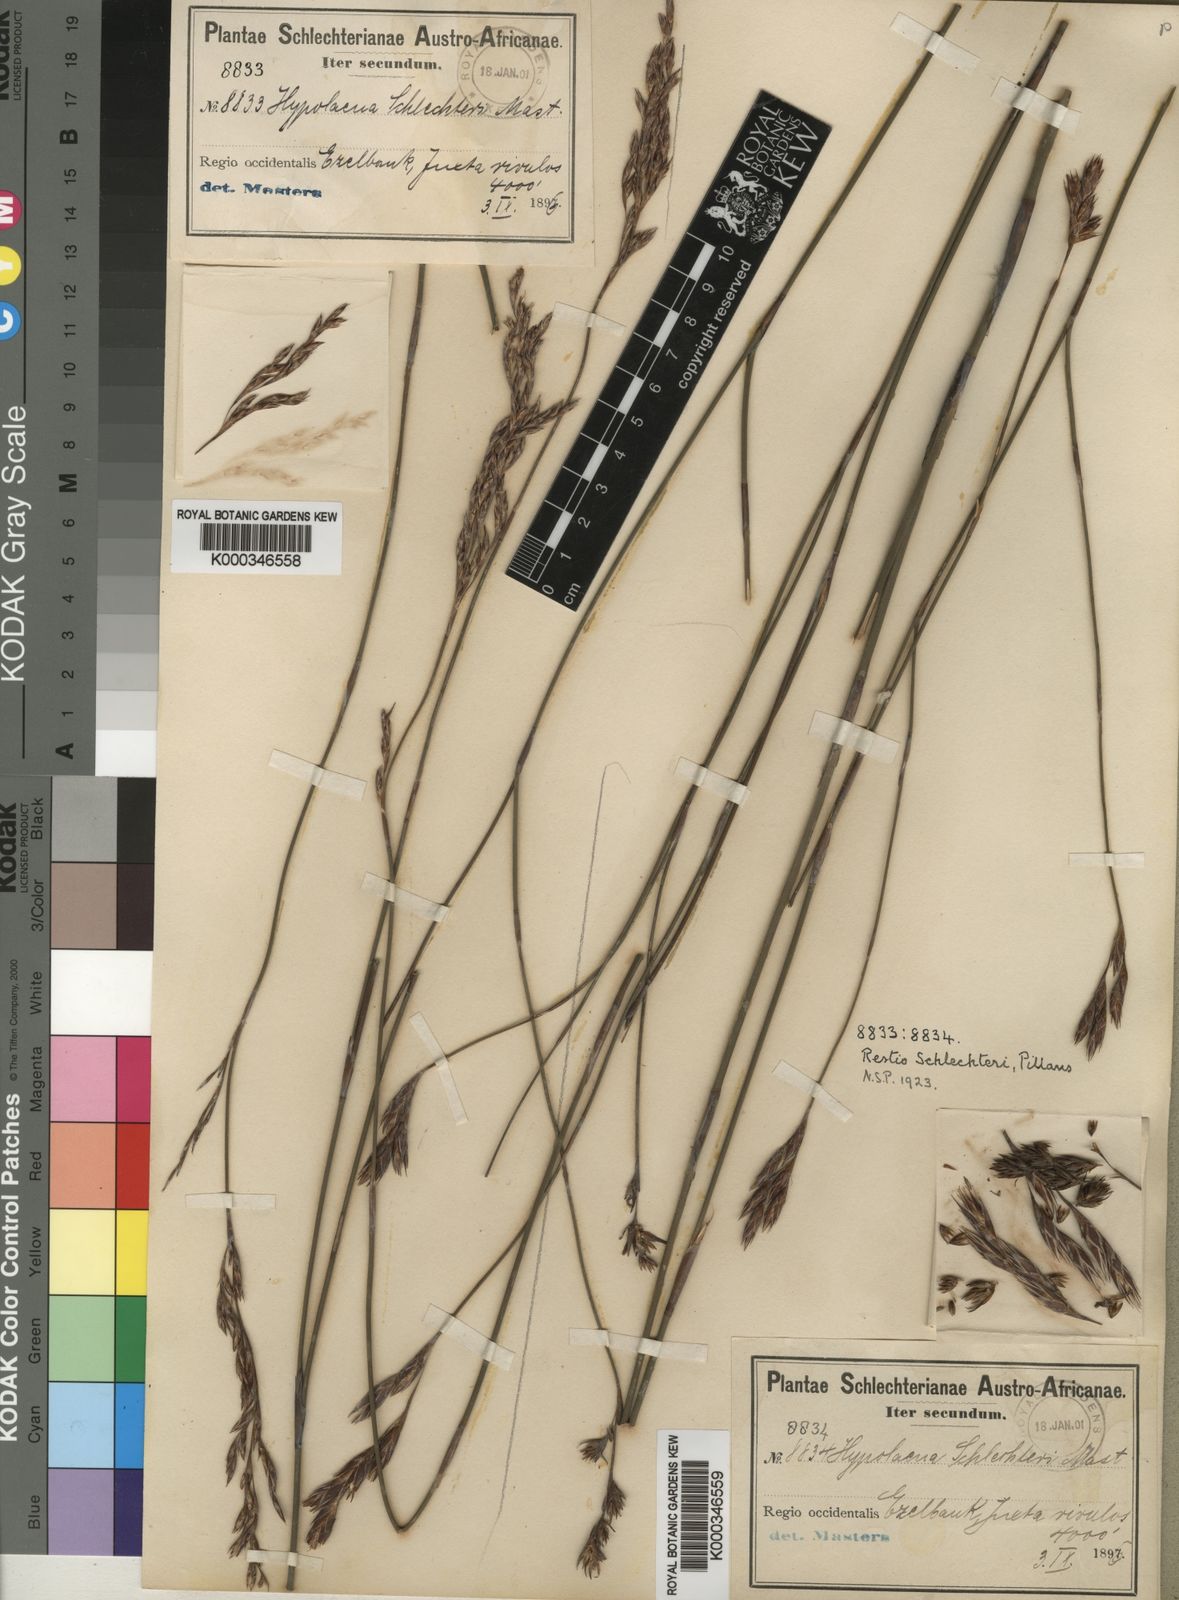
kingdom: Plantae
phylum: Tracheophyta
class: Liliopsida
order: Poales
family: Restionaceae
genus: Restio
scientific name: Restio occultus
